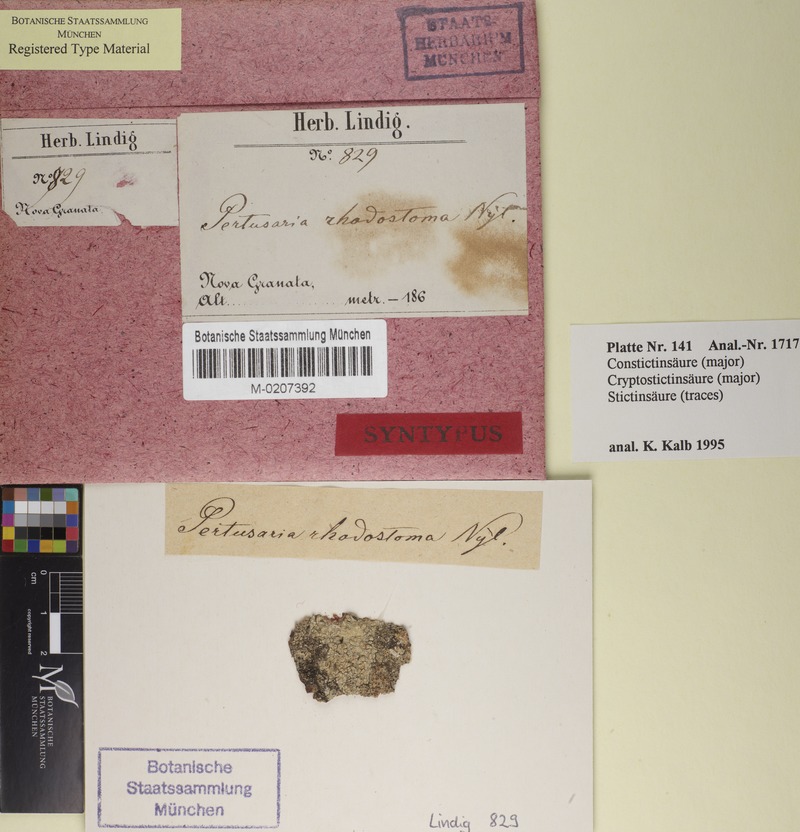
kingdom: Fungi
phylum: Ascomycota
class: Lecanoromycetes
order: Pertusariales
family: Pertusariaceae
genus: Pertusaria
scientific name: Pertusaria rhodostoma
